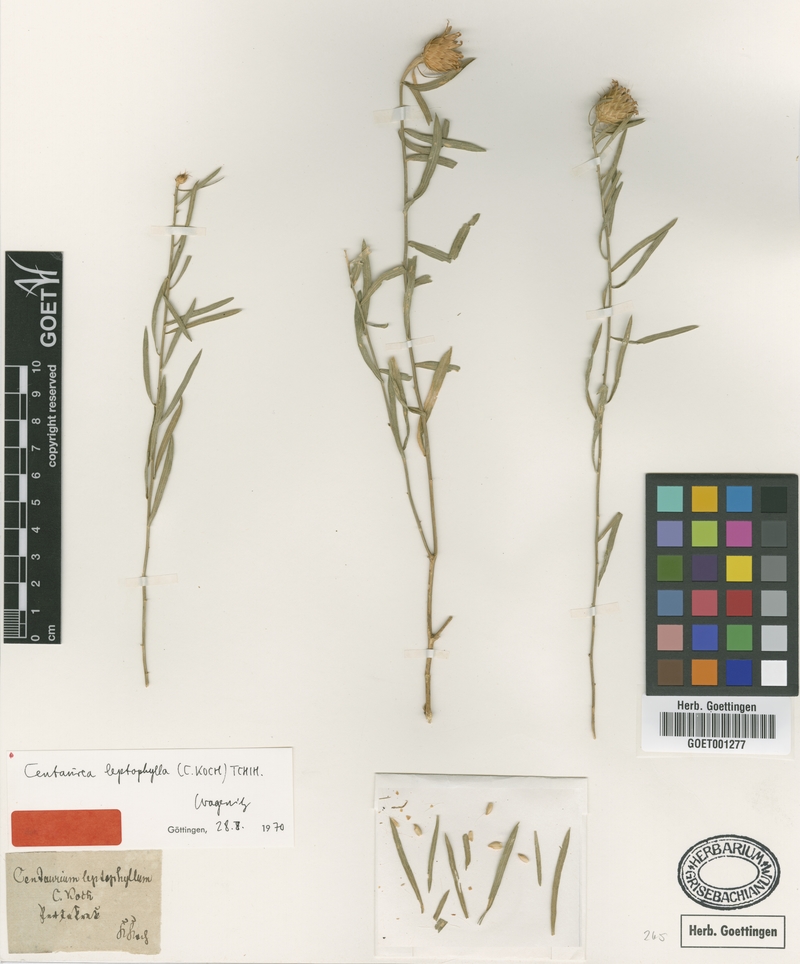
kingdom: Plantae
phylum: Tracheophyta
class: Magnoliopsida
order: Asterales
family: Asteraceae
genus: Centaurea
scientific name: Centaurea leptophylla
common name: Thin-leaved centaury
